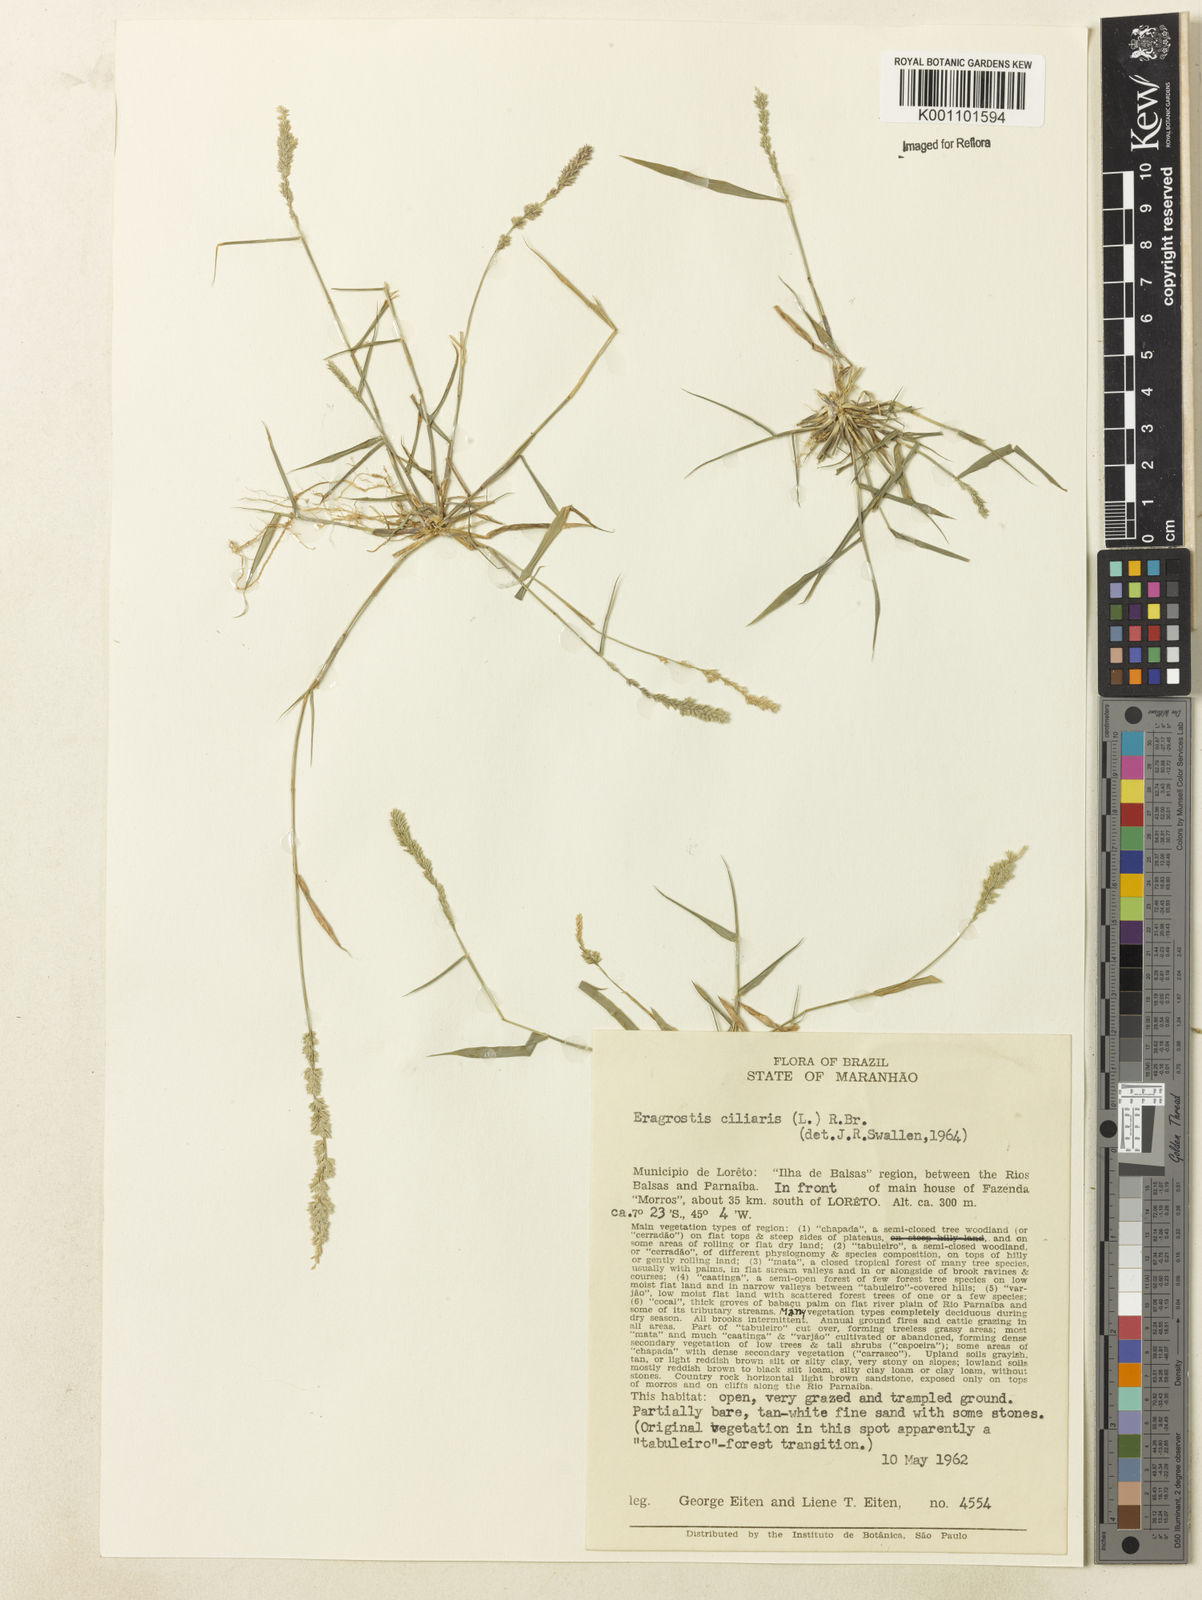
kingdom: Plantae
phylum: Tracheophyta
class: Liliopsida
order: Poales
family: Poaceae
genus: Eragrostis
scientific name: Eragrostis ciliaris
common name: Gophertail lovegrass
